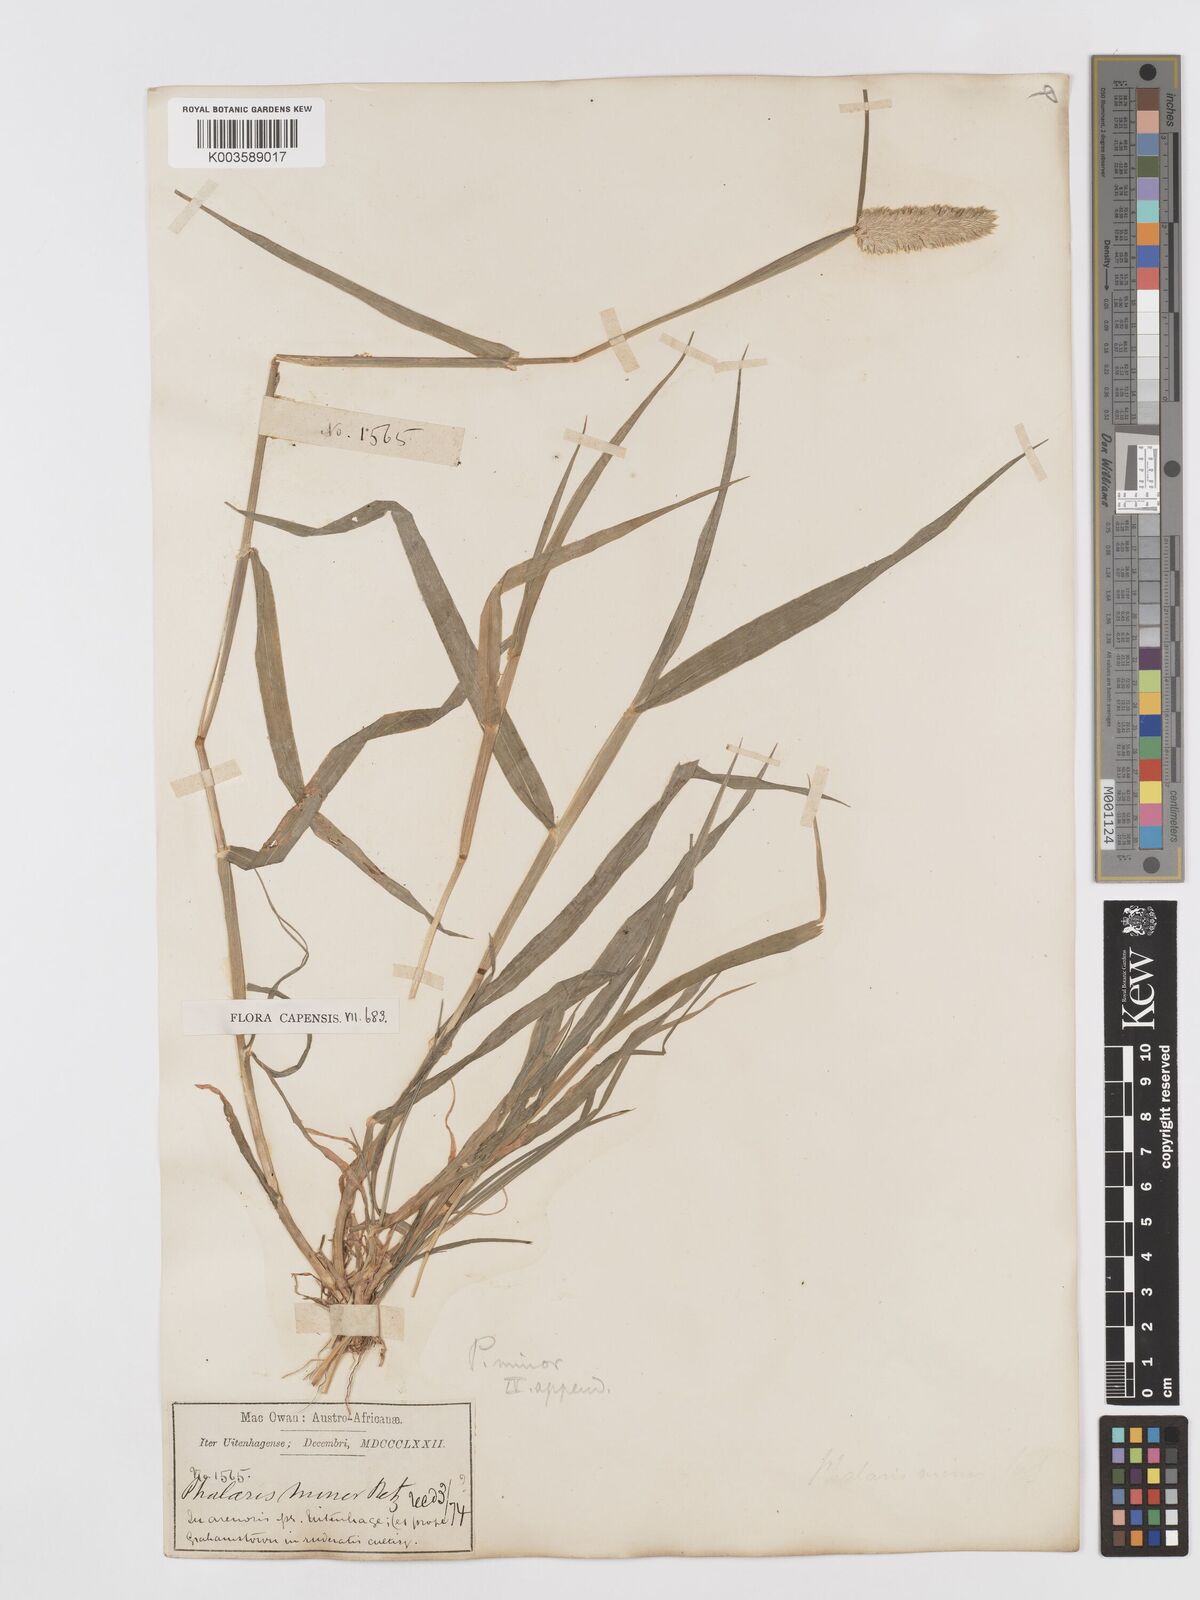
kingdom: Plantae
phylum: Tracheophyta
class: Liliopsida
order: Poales
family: Poaceae
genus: Phalaris
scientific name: Phalaris minor
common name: Littleseed canarygrass
